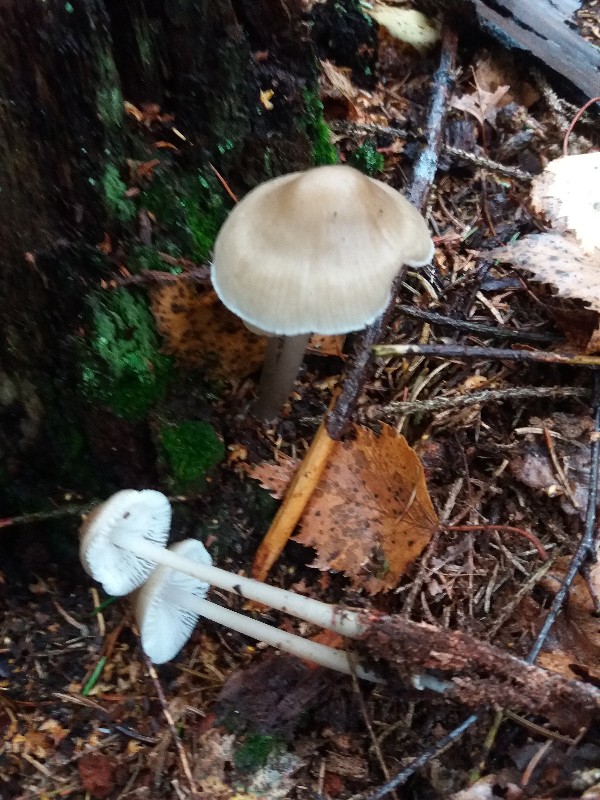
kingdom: Fungi
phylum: Basidiomycota
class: Agaricomycetes
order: Agaricales
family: Mycenaceae
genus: Mycena
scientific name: Mycena galericulata
